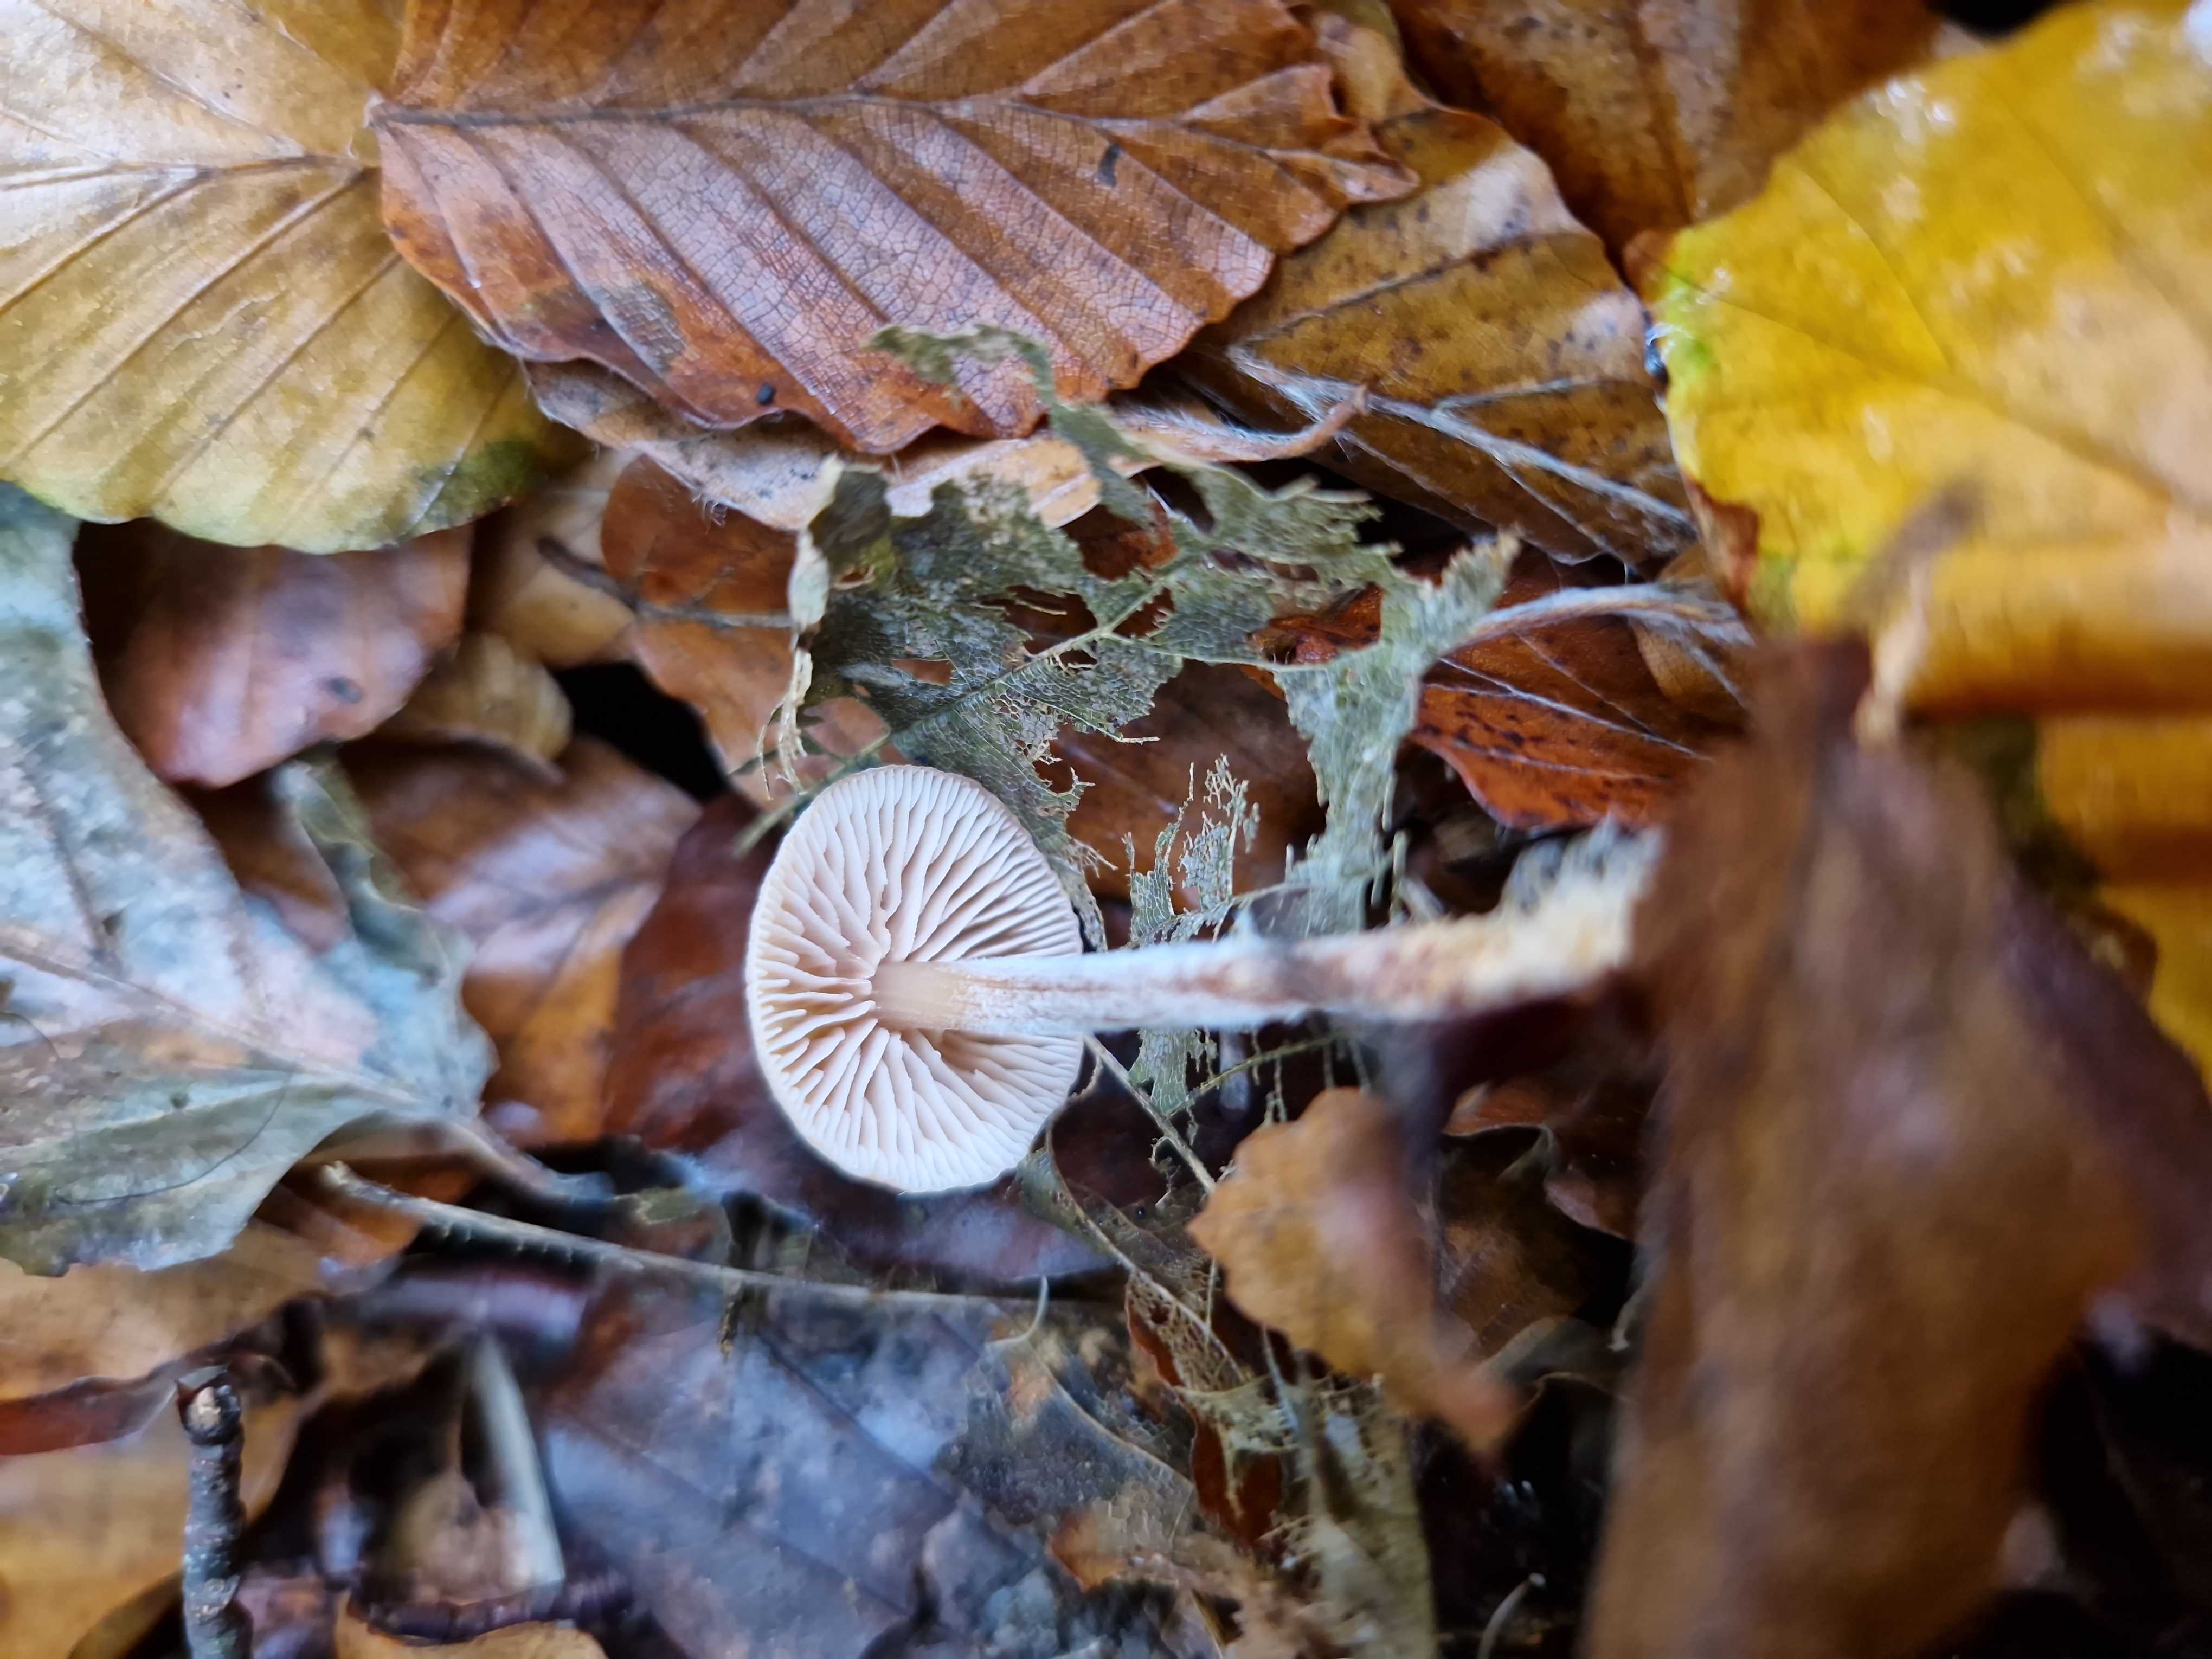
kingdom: Fungi
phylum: Basidiomycota
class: Agaricomycetes
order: Agaricales
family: Omphalotaceae
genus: Gymnopus
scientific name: Gymnopus fagiphilus
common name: bøgeløv-fladhat
